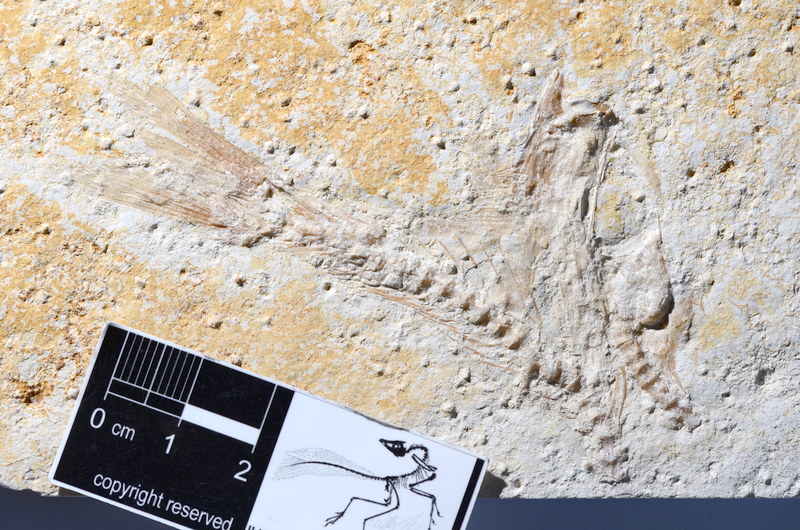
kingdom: Animalia
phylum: Chordata
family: Ascalaboidae
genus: Tharsis
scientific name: Tharsis dubius
